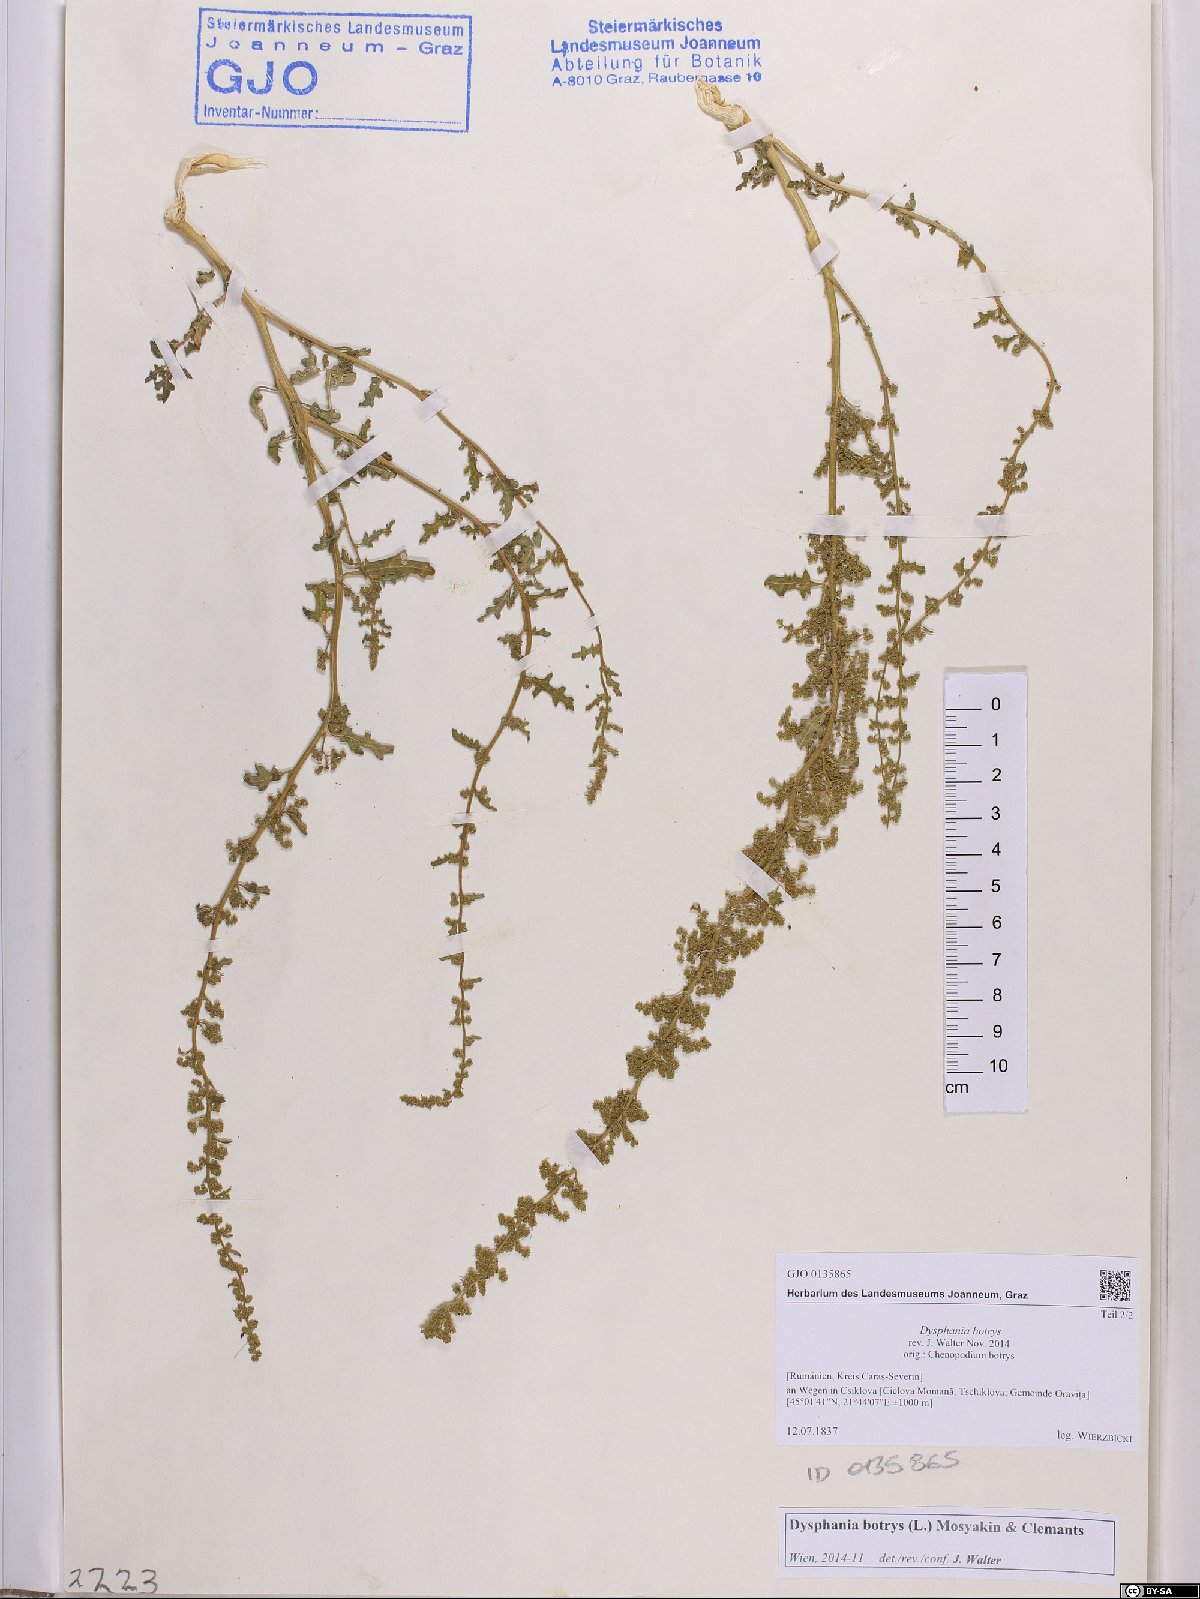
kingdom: Plantae
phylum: Tracheophyta
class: Magnoliopsida
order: Caryophyllales
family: Amaranthaceae
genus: Dysphania
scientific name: Dysphania botrys
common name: Feather-geranium
